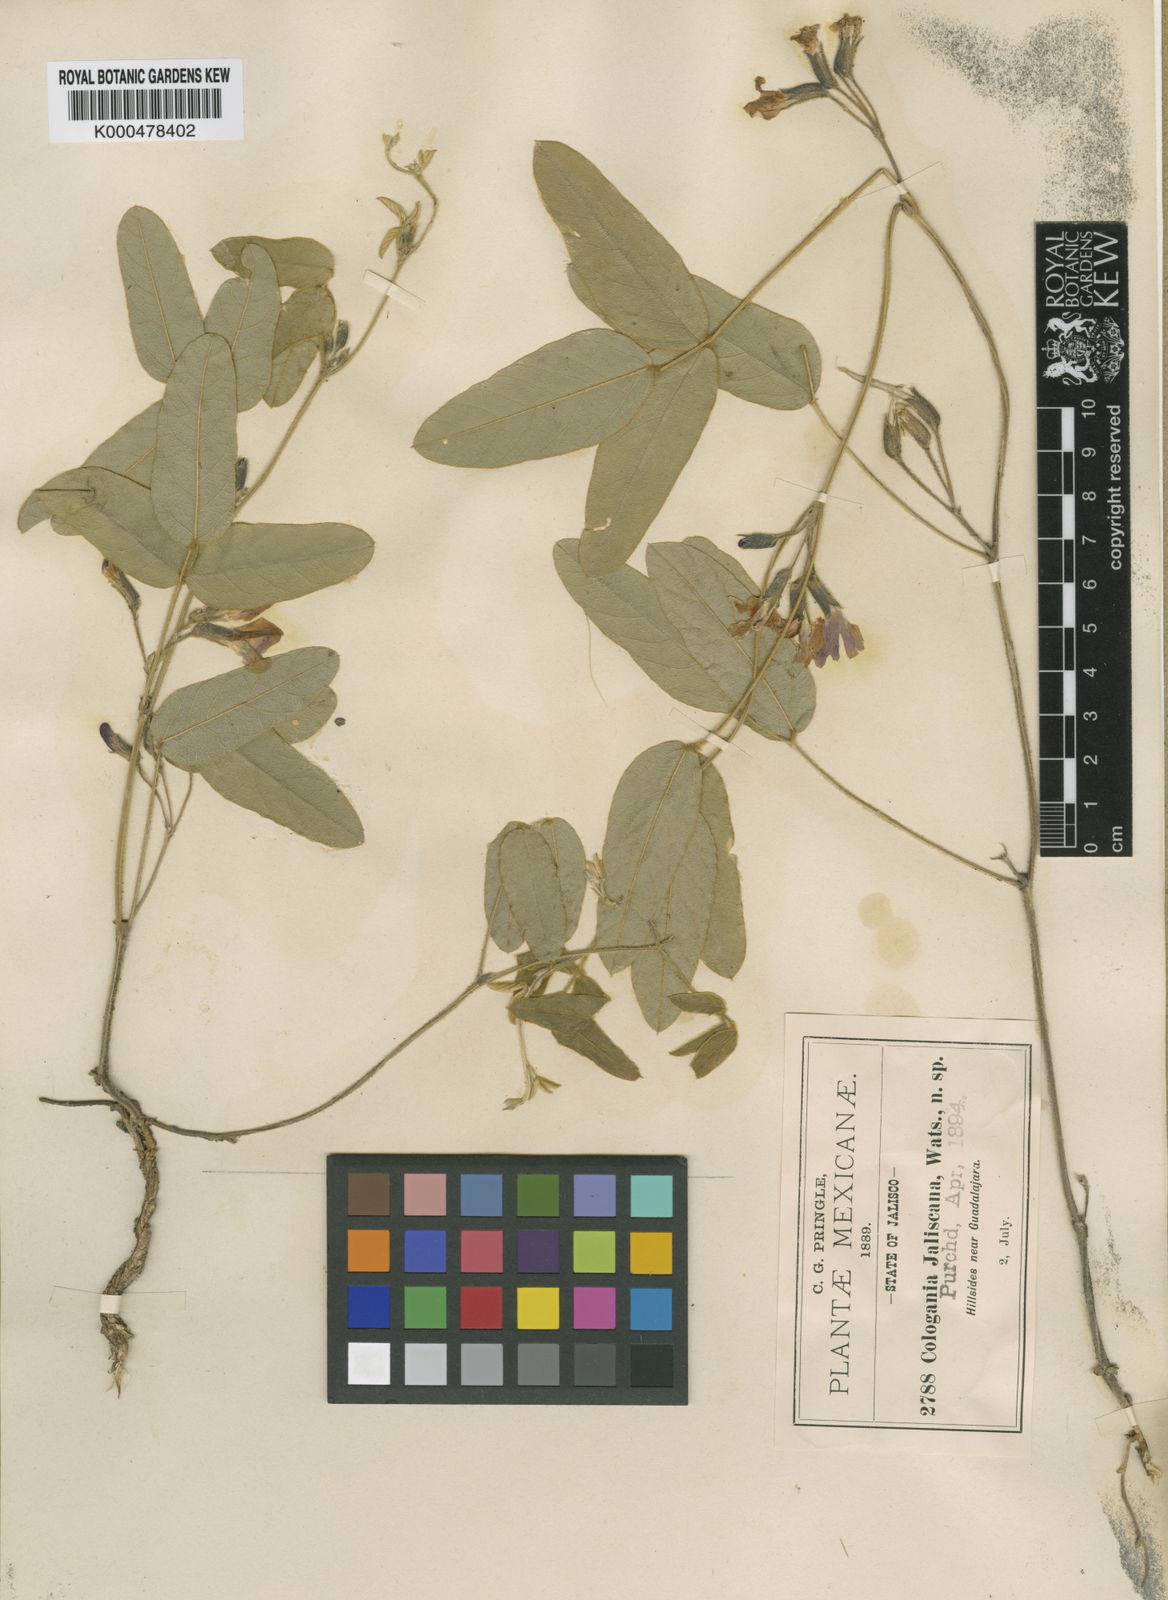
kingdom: Plantae
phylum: Tracheophyta
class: Magnoliopsida
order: Fabales
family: Fabaceae
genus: Cologania
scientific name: Cologania angustifolia
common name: Longleaf cologania
